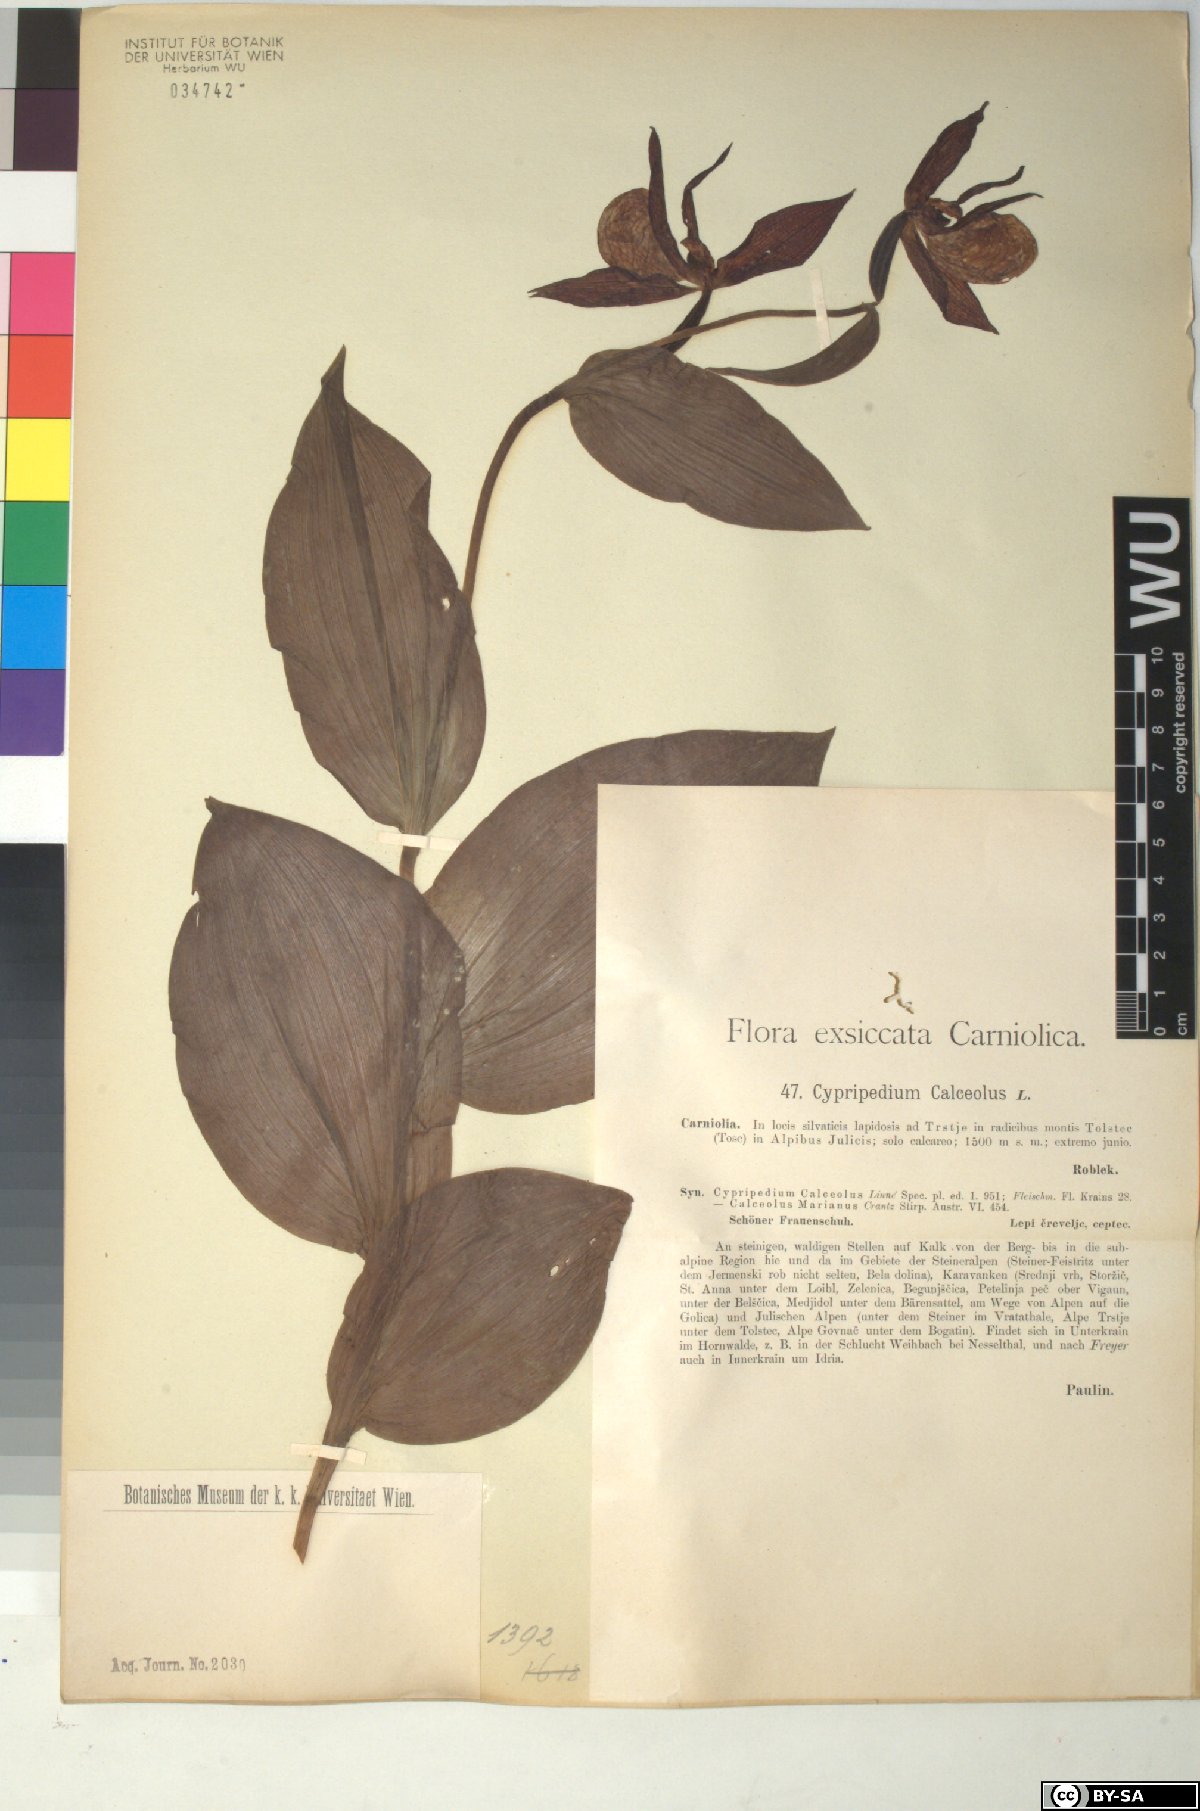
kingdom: Plantae
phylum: Tracheophyta
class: Liliopsida
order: Asparagales
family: Orchidaceae
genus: Cypripedium
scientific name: Cypripedium calceolus
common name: Lady's-slipper
